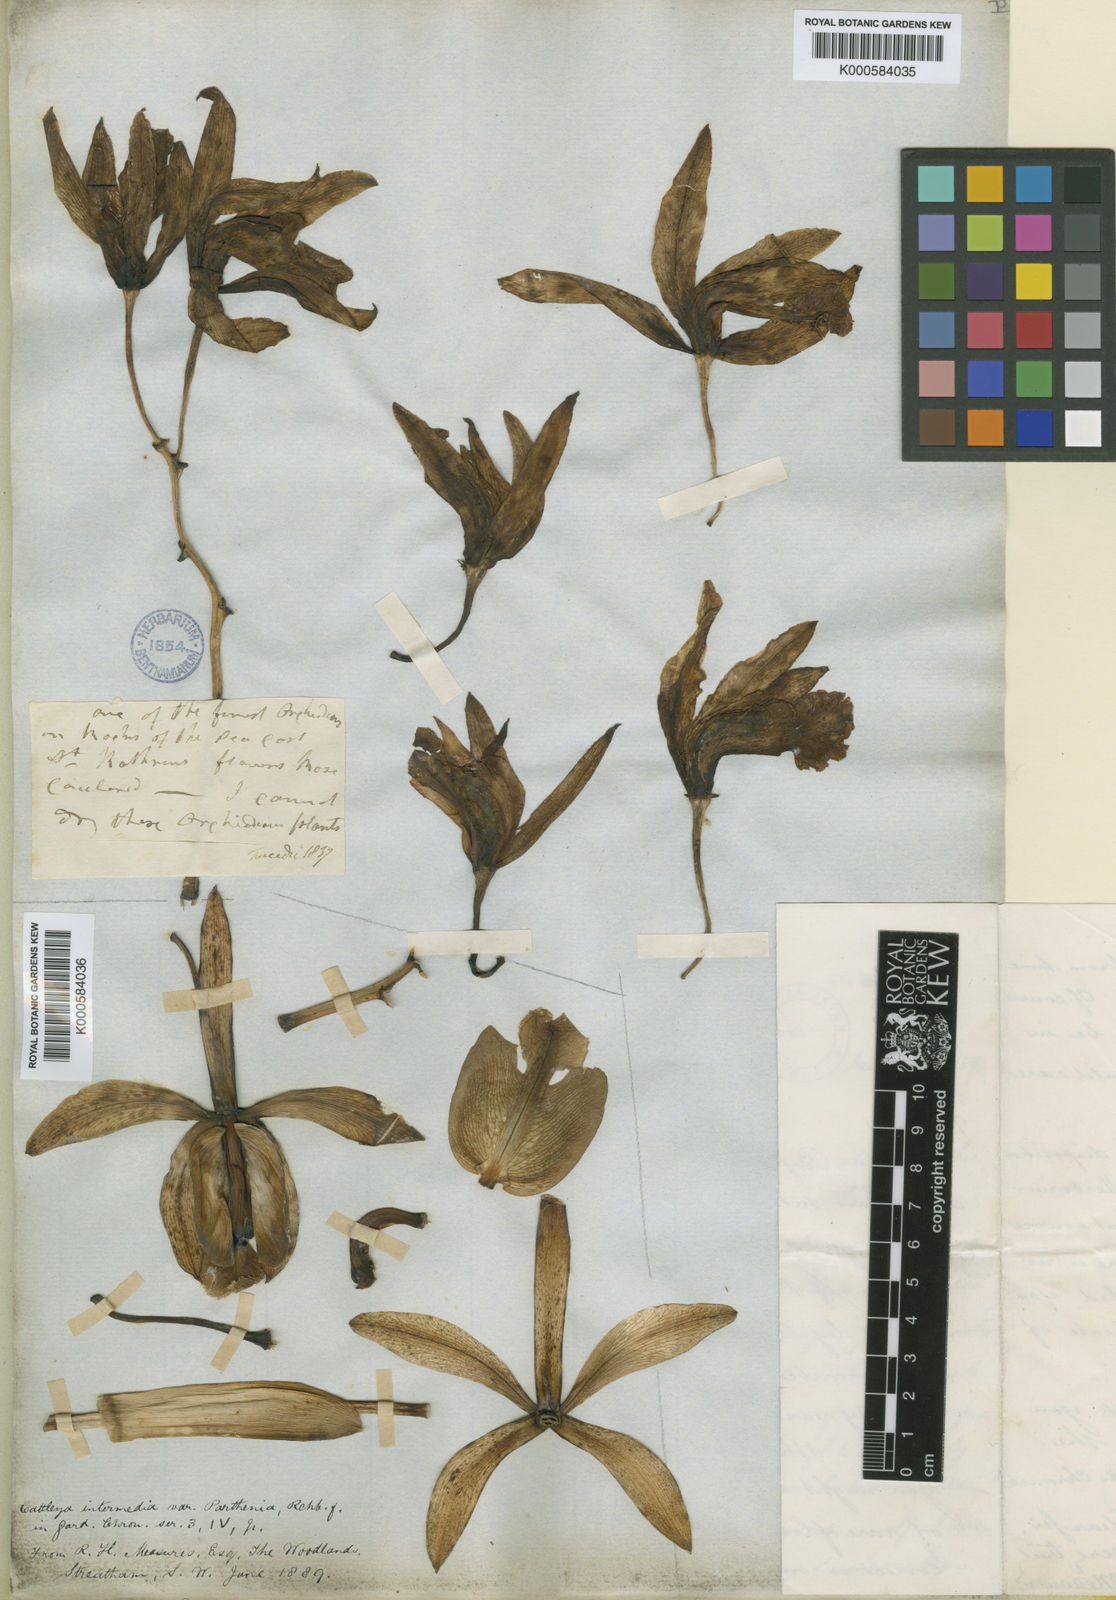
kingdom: Plantae
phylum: Tracheophyta
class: Liliopsida
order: Asparagales
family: Orchidaceae
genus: Cattleya
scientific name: Cattleya
